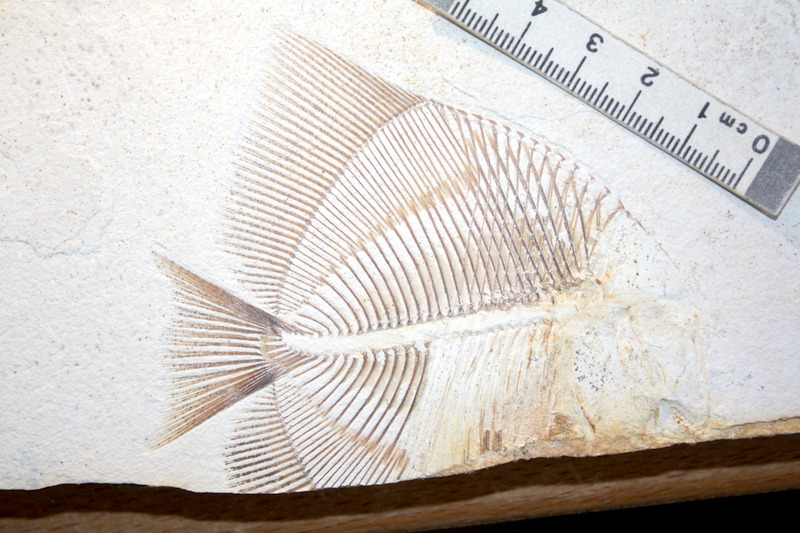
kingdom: Animalia
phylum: Chordata
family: Pycnodontidae
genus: Turbomesodon
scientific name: Turbomesodon relegans
